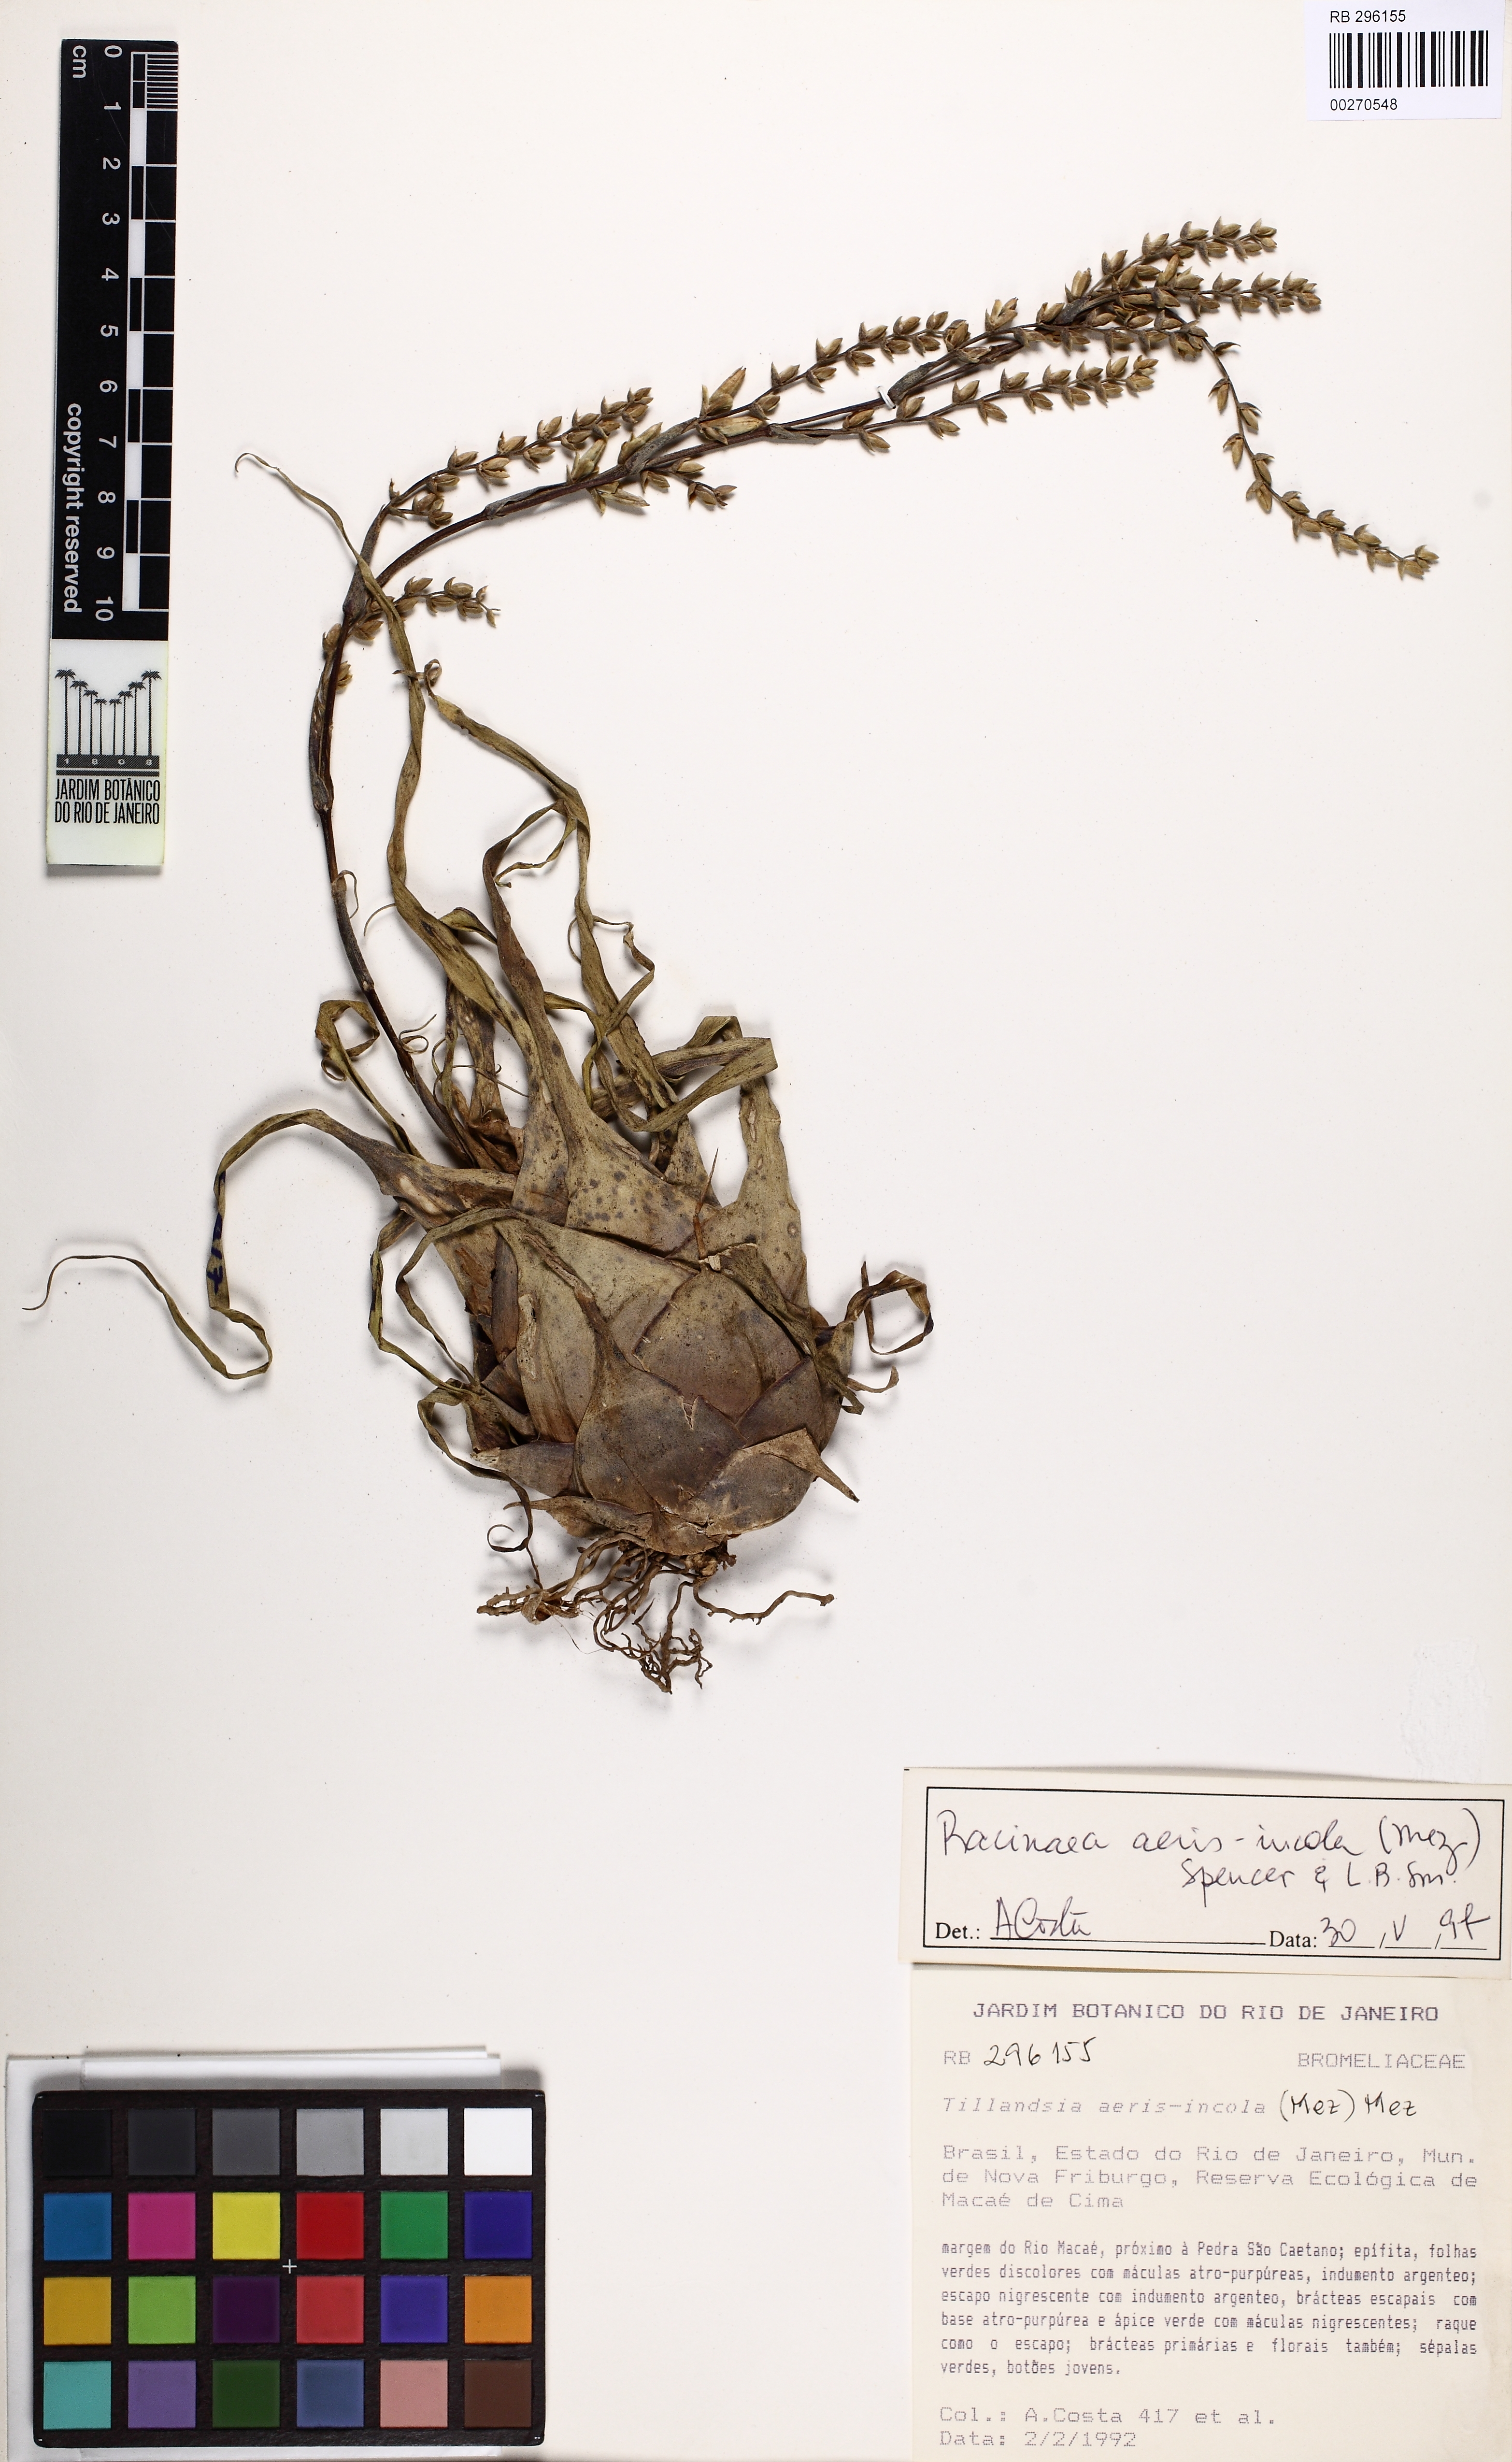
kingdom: Plantae
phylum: Tracheophyta
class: Liliopsida
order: Poales
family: Bromeliaceae
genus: Racinaea
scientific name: Racinaea aeris-incola
